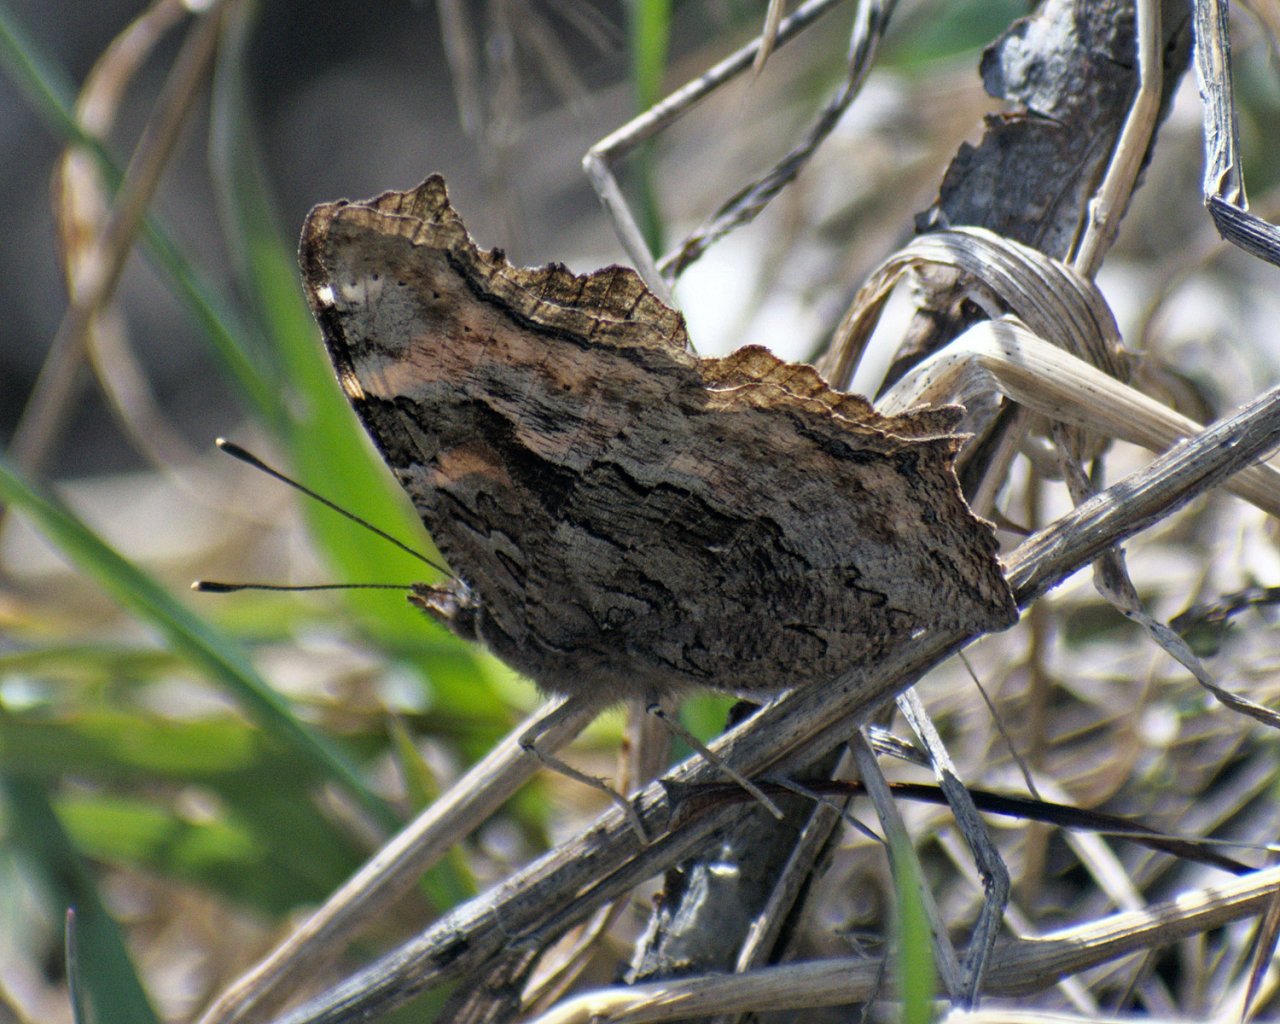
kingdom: Animalia
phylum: Arthropoda
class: Insecta
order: Lepidoptera
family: Nymphalidae
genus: Polygonia
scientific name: Polygonia vaualbum
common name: Compton Tortoiseshell
